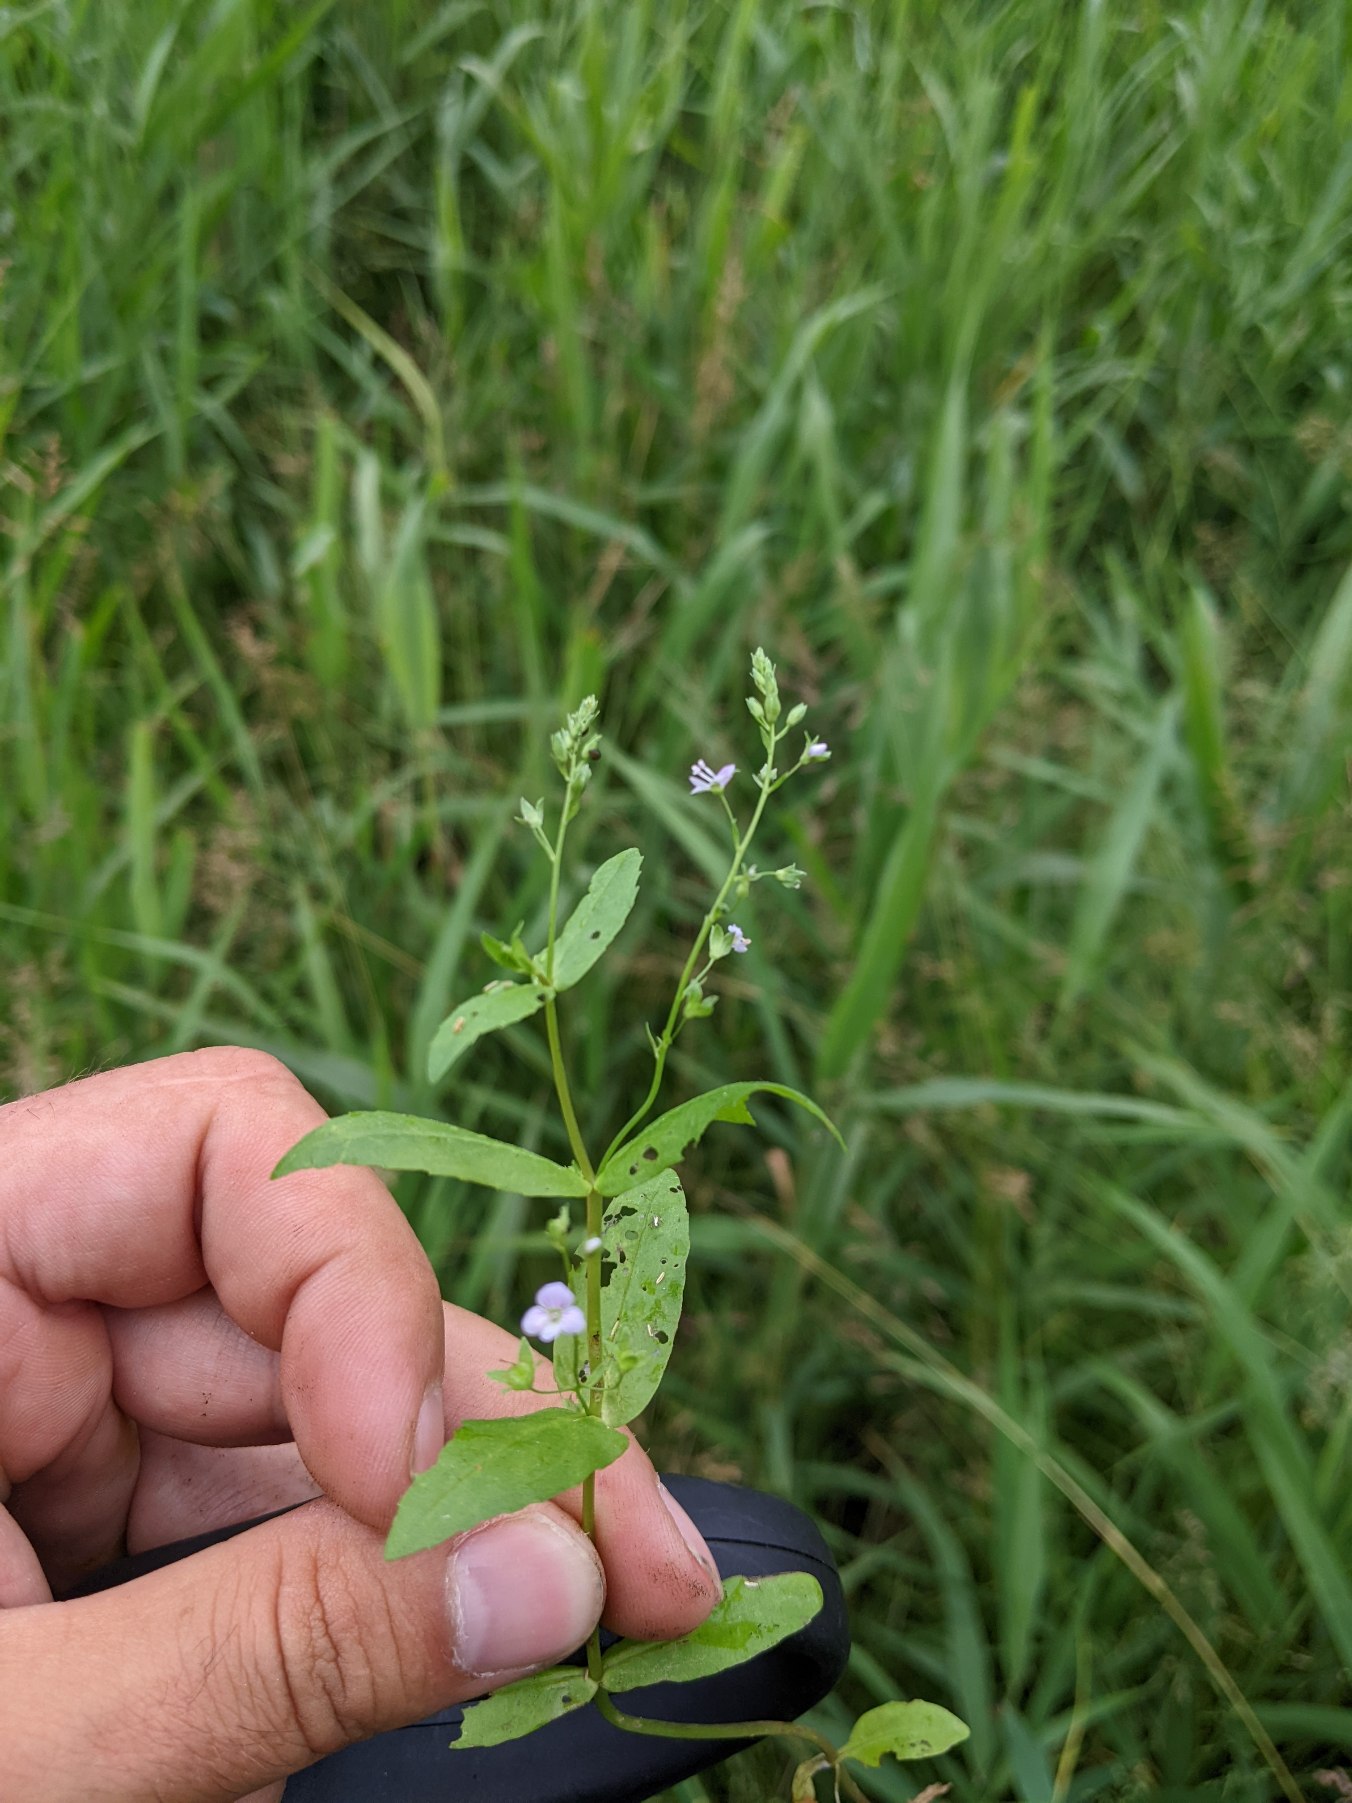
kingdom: Plantae
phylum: Tracheophyta
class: Magnoliopsida
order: Lamiales
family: Plantaginaceae
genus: Veronica
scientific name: Veronica anagallis-aquatica
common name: Lancetbladet ærenpris
